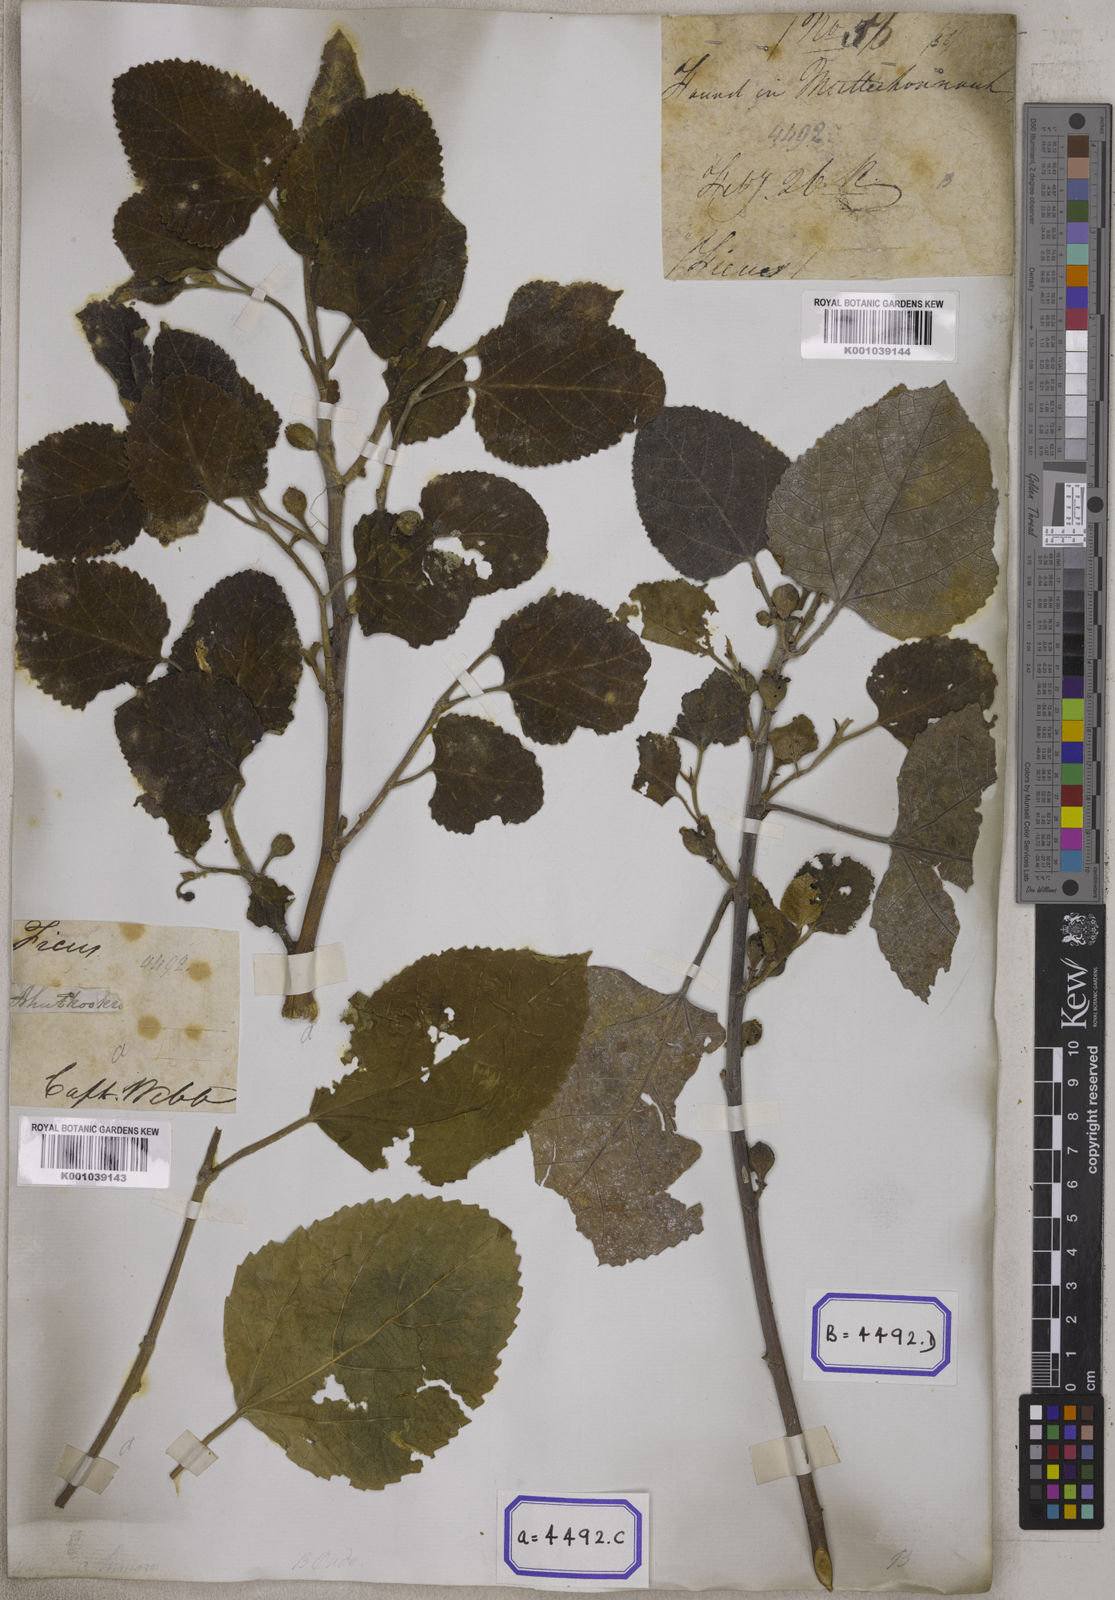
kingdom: Plantae
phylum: Tracheophyta
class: Magnoliopsida
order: Rosales
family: Moraceae
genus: Ficus
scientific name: Ficus palmata
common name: Punjab fig
